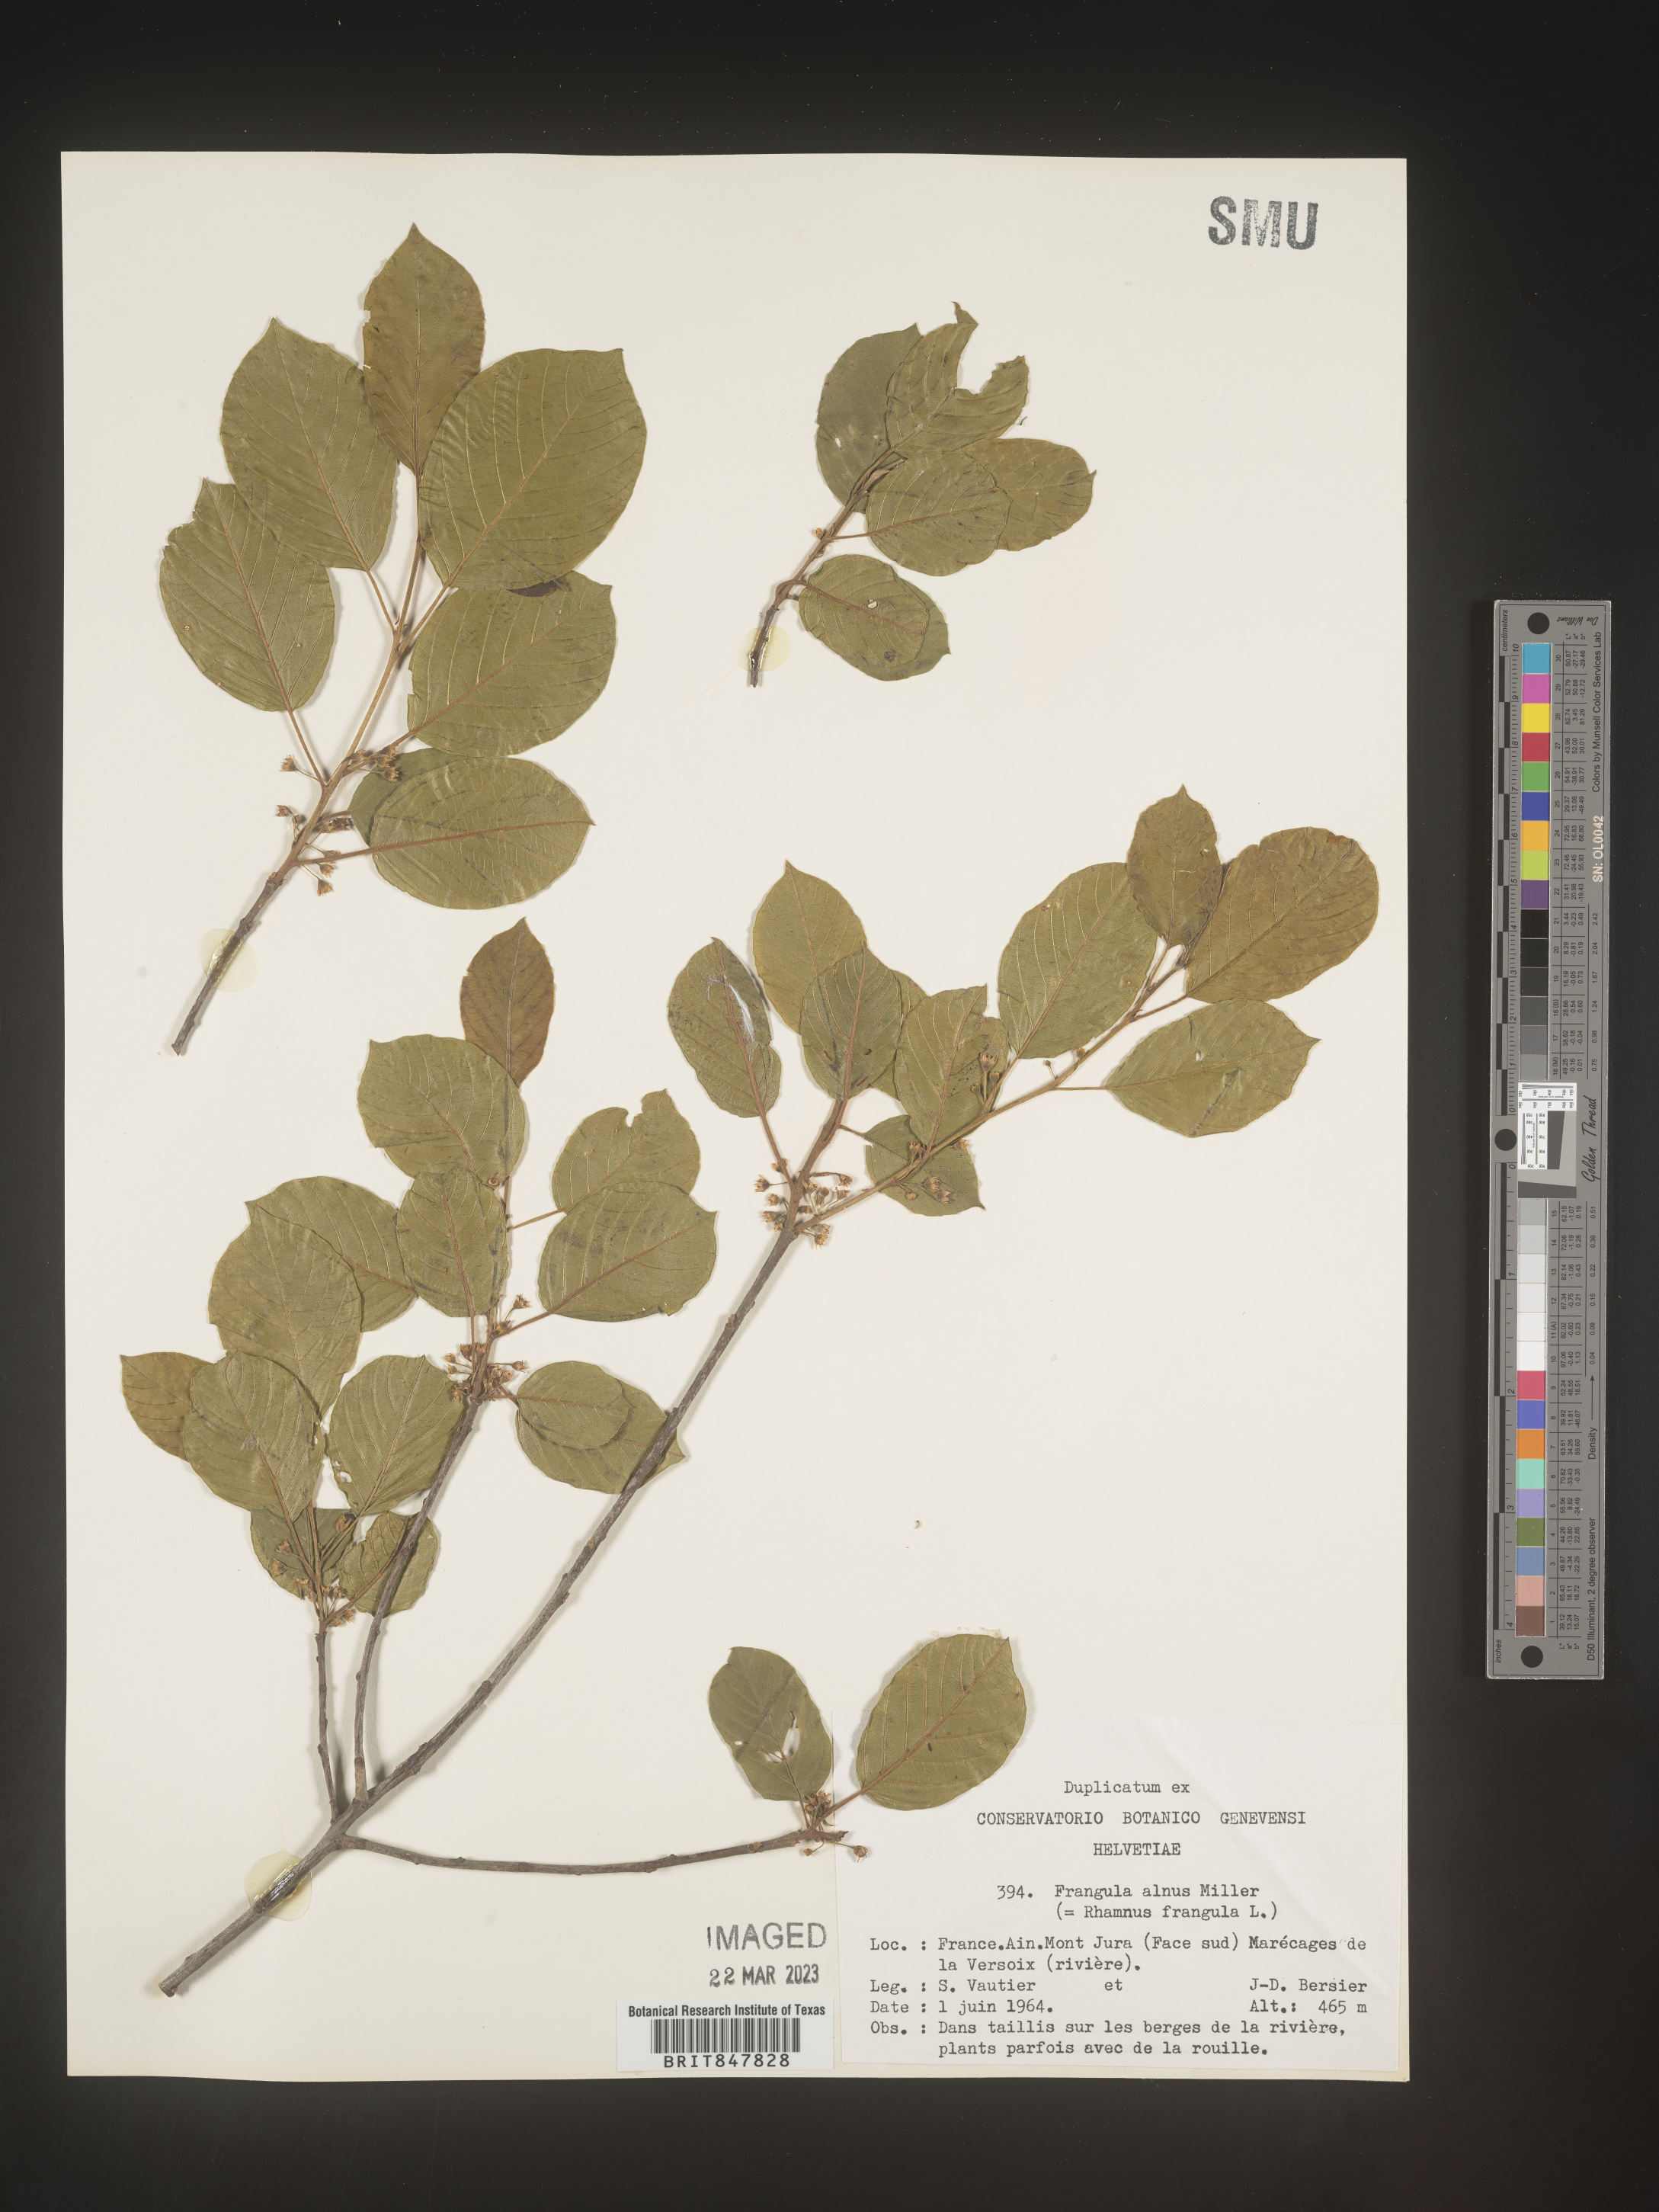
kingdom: Plantae
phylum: Tracheophyta
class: Magnoliopsida
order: Rosales
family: Rhamnaceae
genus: Rhamnus
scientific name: Rhamnus
